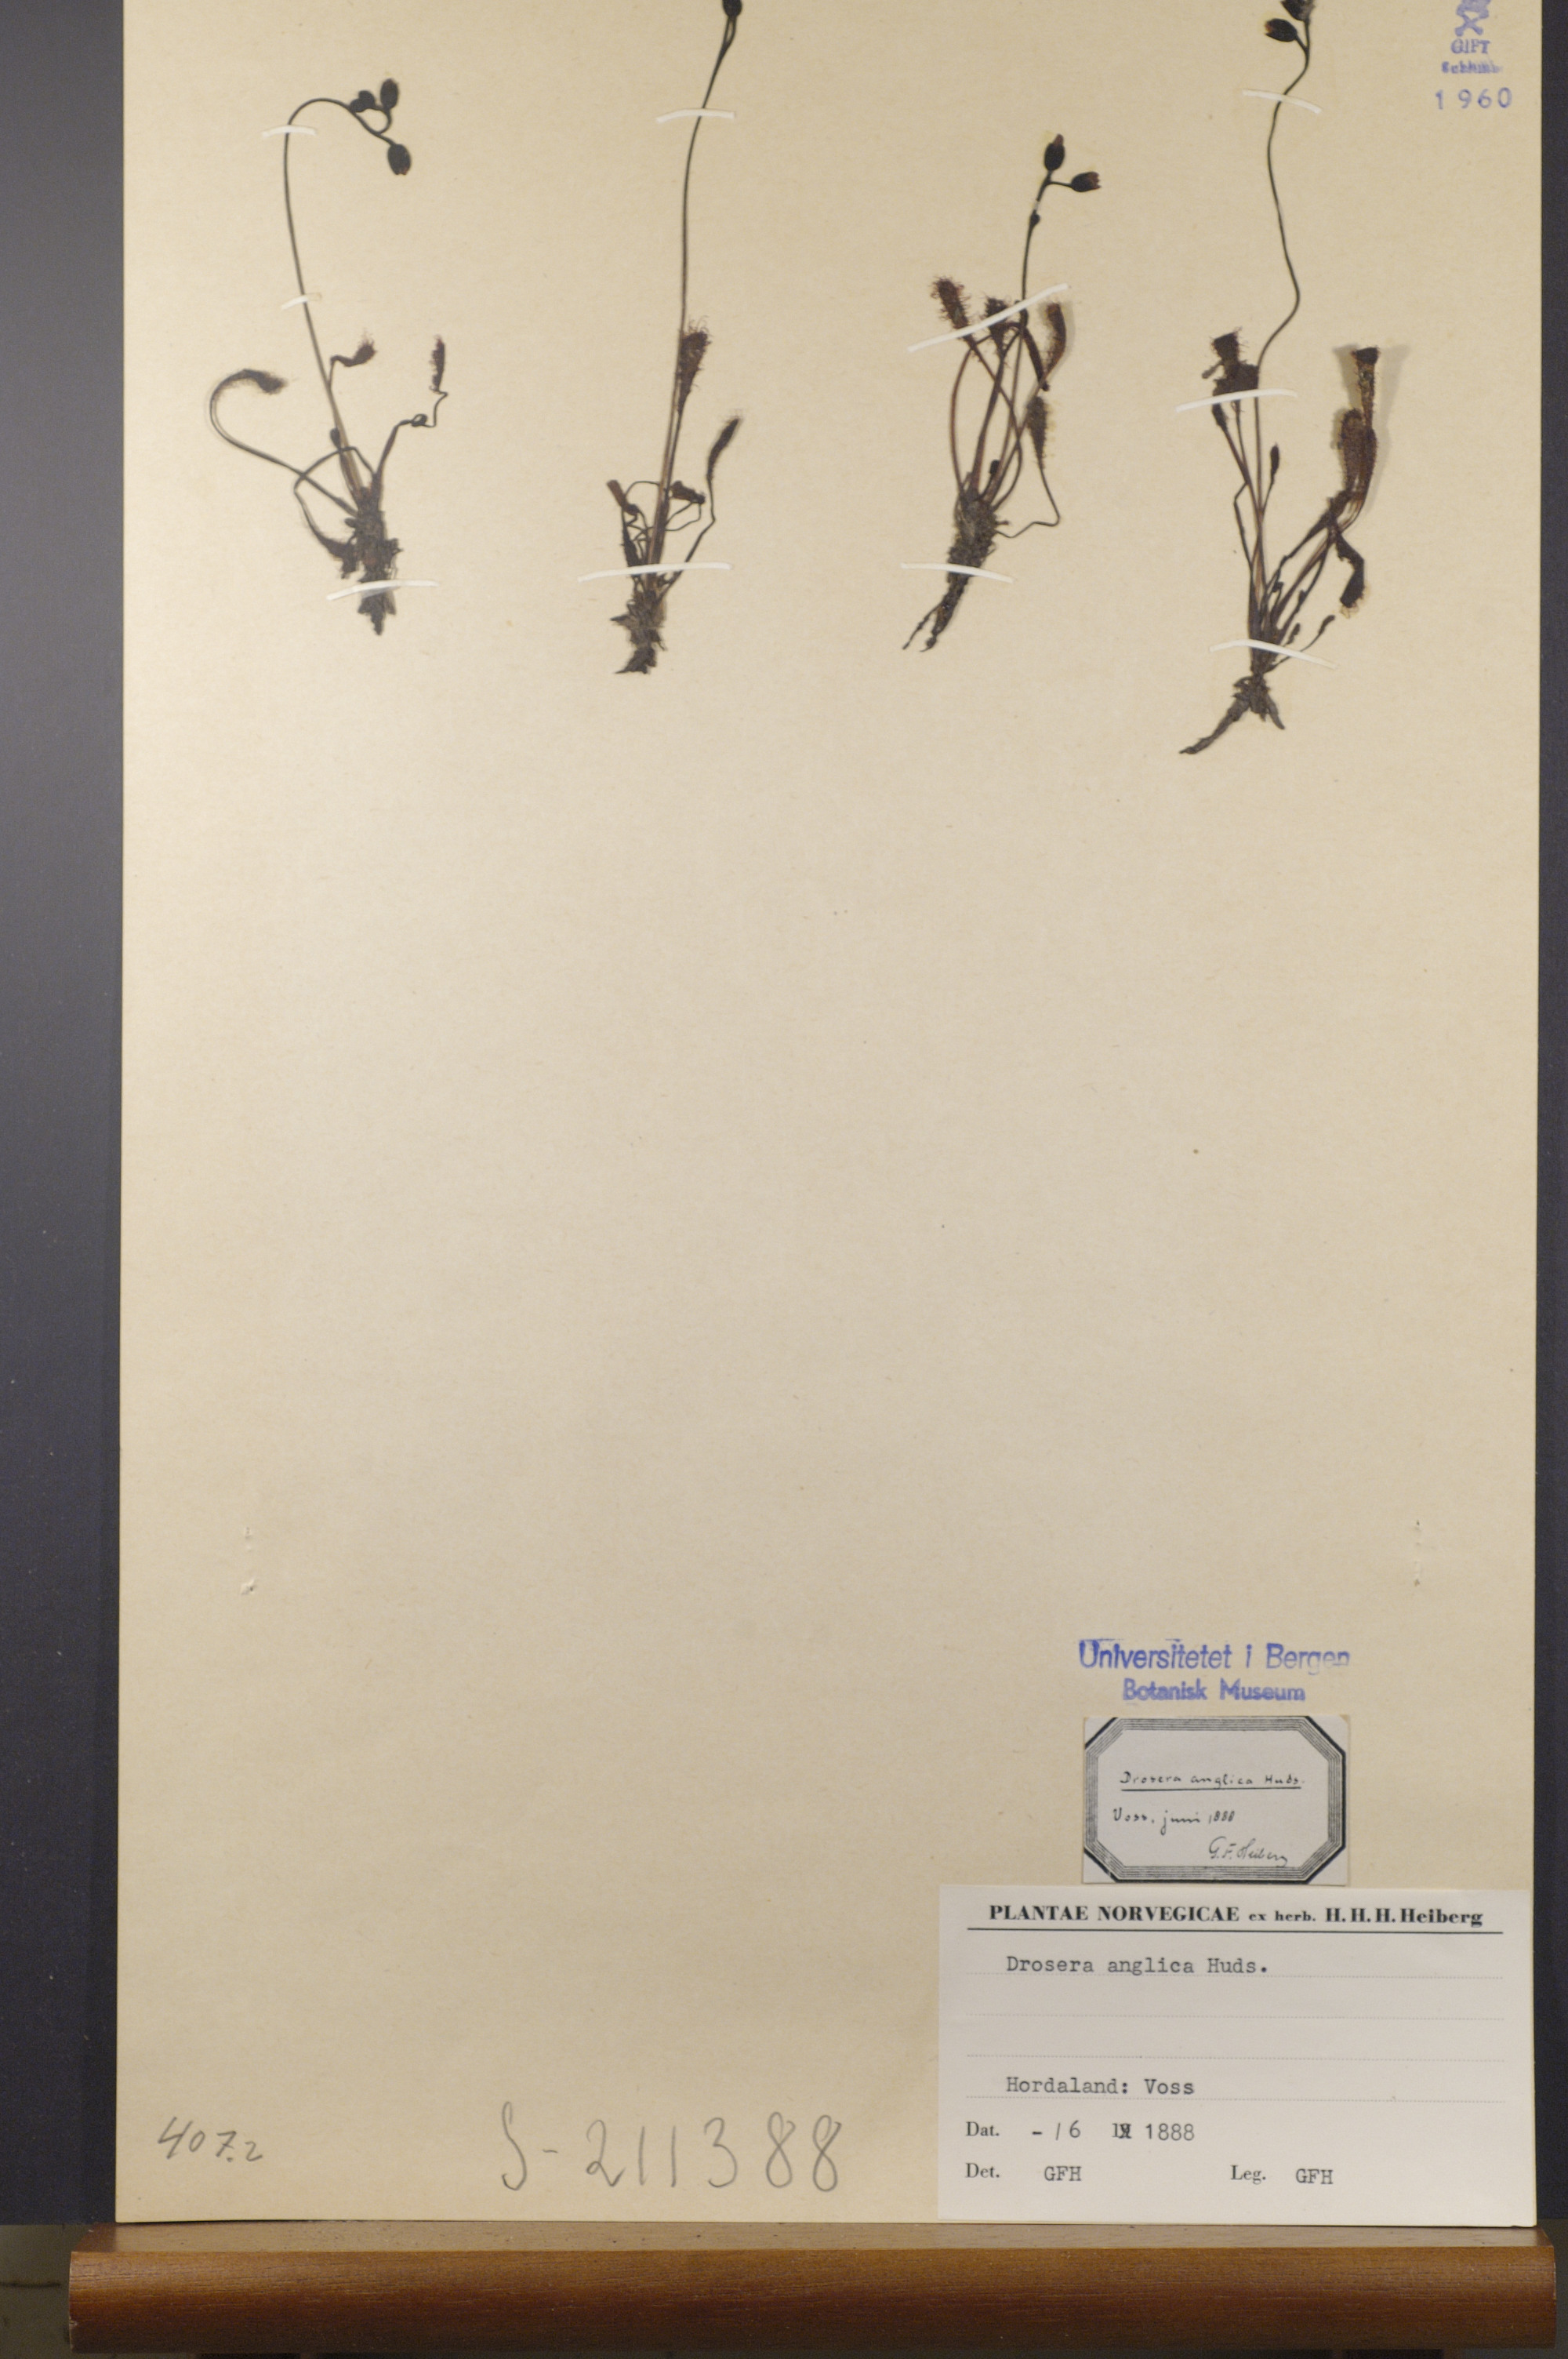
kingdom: Plantae
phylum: Tracheophyta
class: Magnoliopsida
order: Caryophyllales
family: Droseraceae
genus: Drosera
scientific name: Drosera anglica
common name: Great sundew
